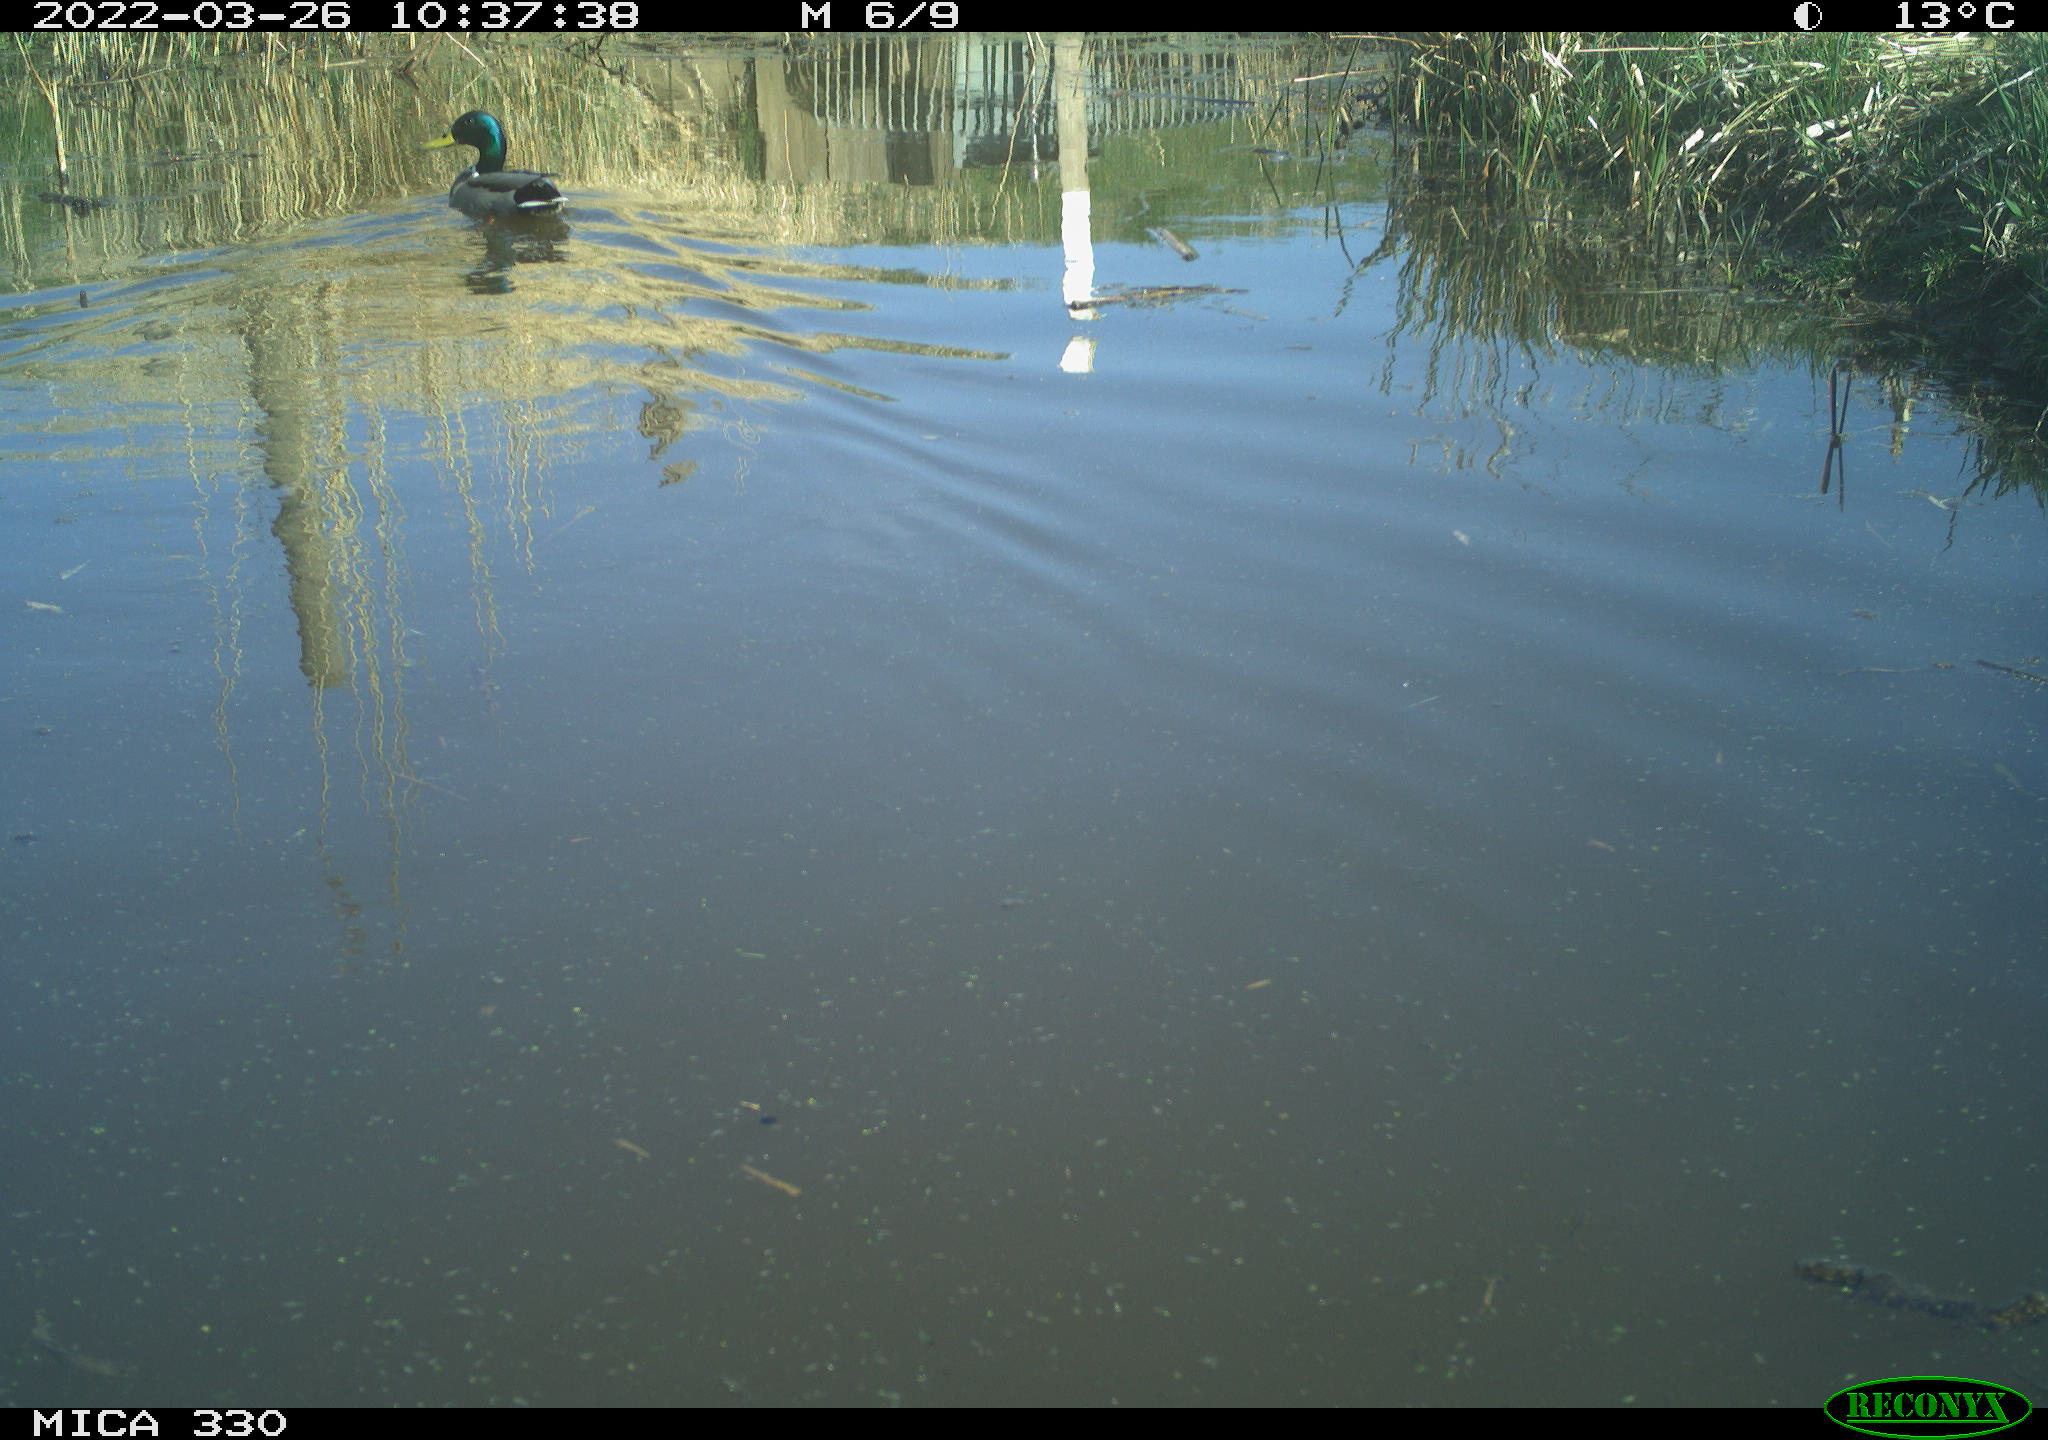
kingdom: Animalia
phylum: Chordata
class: Aves
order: Anseriformes
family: Anatidae
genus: Anas
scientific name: Anas platyrhynchos
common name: Mallard
